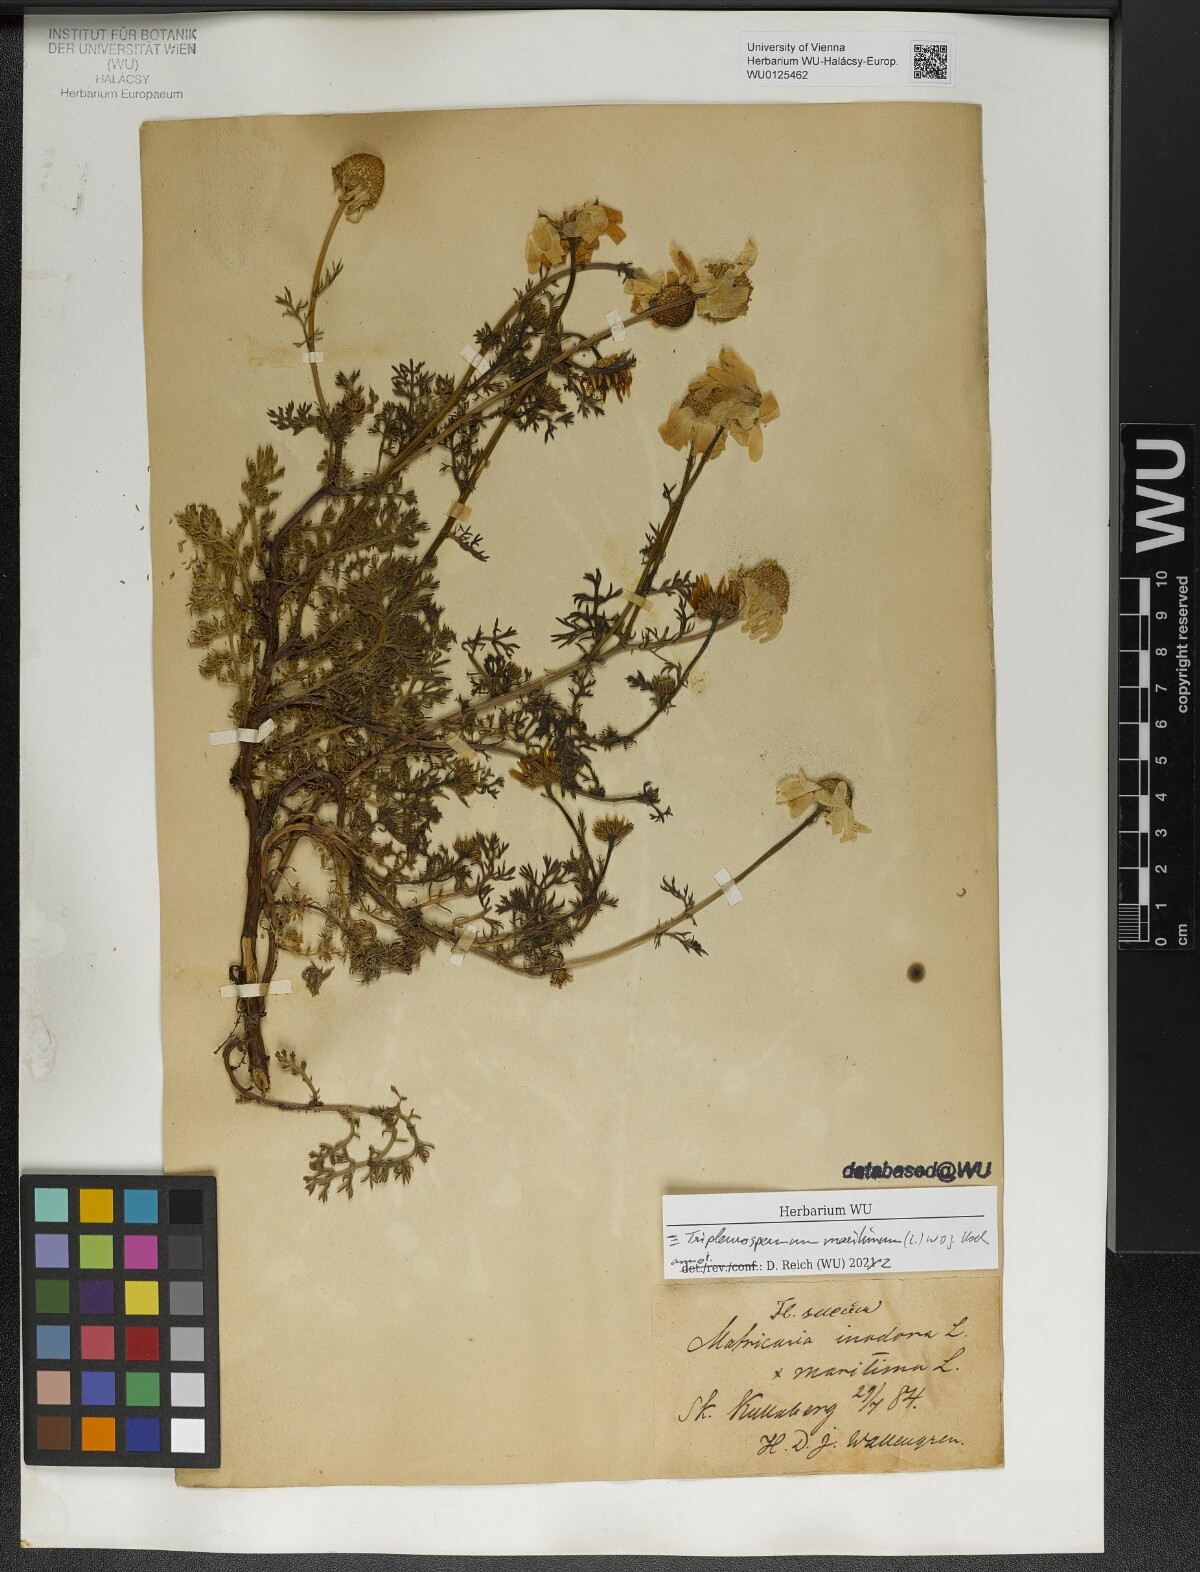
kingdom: Plantae
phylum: Tracheophyta
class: Magnoliopsida
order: Asterales
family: Asteraceae
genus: Tripleurospermum
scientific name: Tripleurospermum maritimum
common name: Sea mayweed
